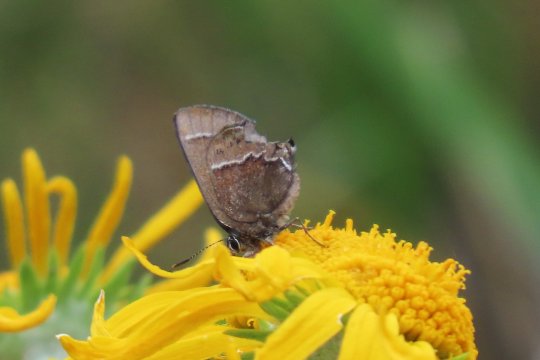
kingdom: Animalia
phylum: Arthropoda
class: Insecta
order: Lepidoptera
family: Lycaenidae
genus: Mitoura
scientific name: Mitoura spinetorum
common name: Thicket Hairstreak
